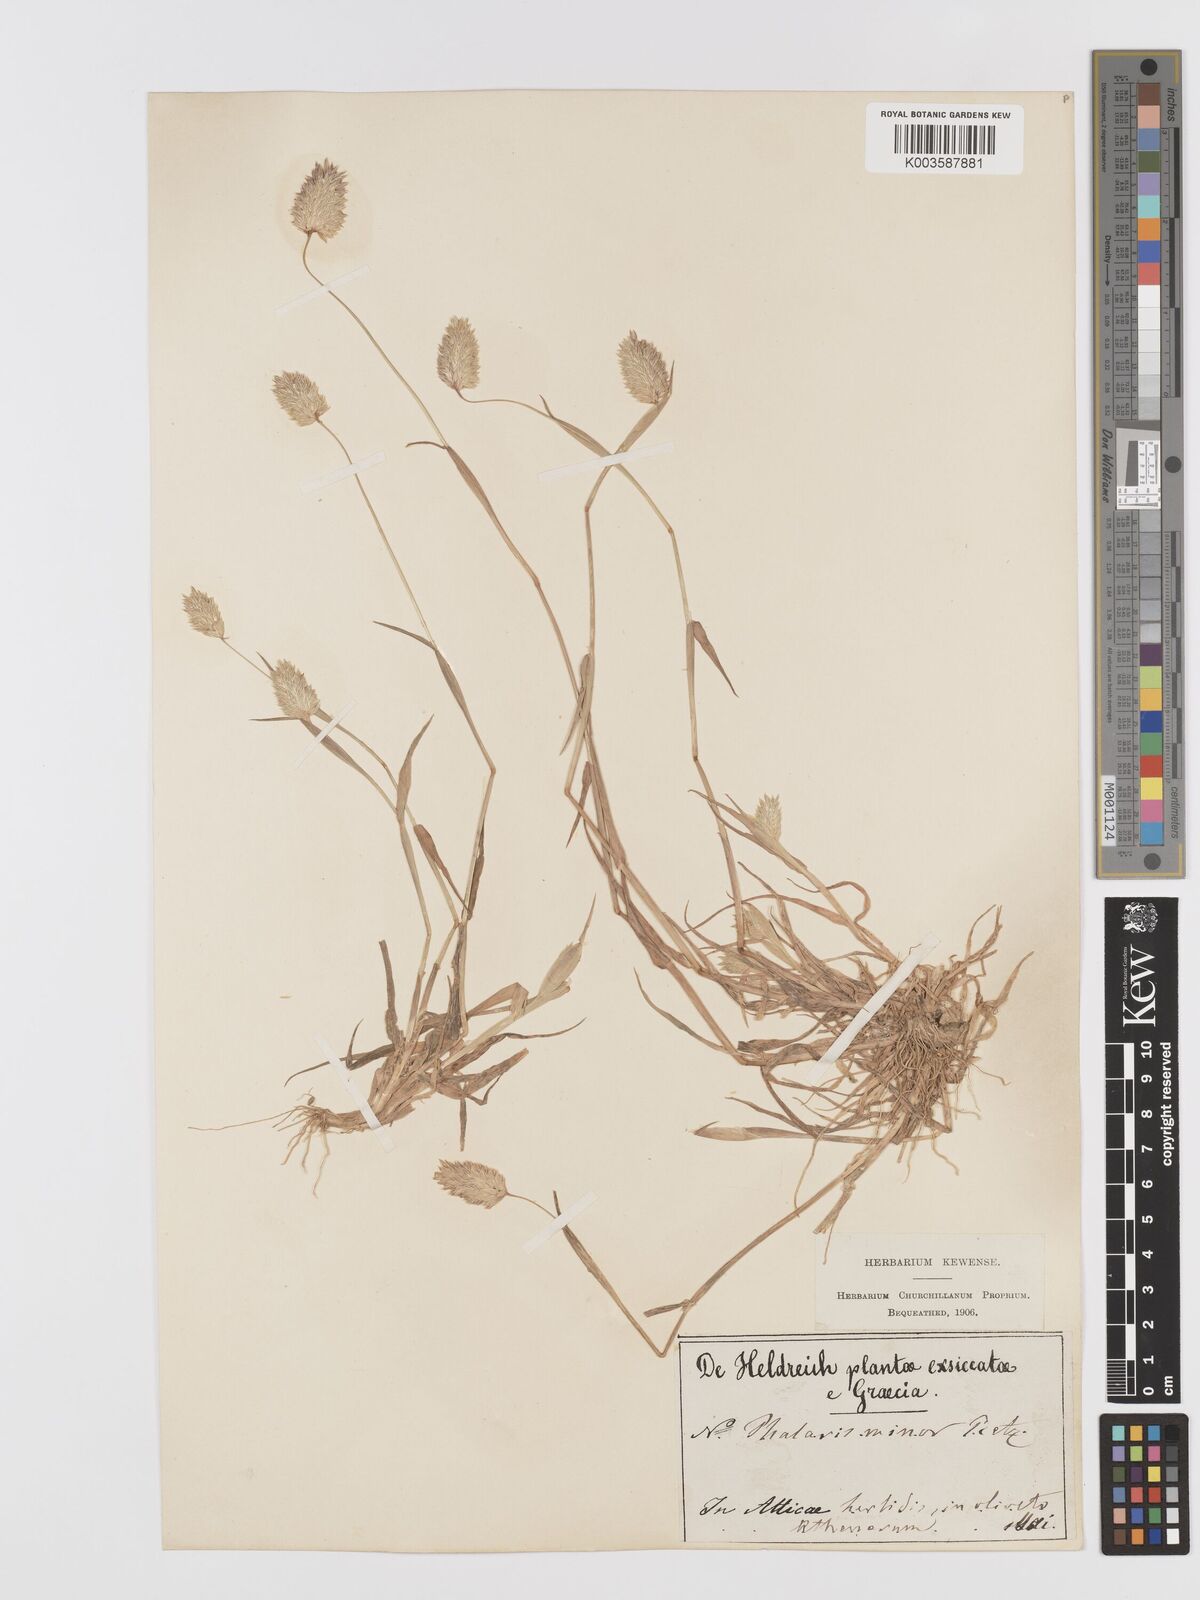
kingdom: Plantae
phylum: Tracheophyta
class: Liliopsida
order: Poales
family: Poaceae
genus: Phalaris
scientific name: Phalaris minor
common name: Littleseed canarygrass
